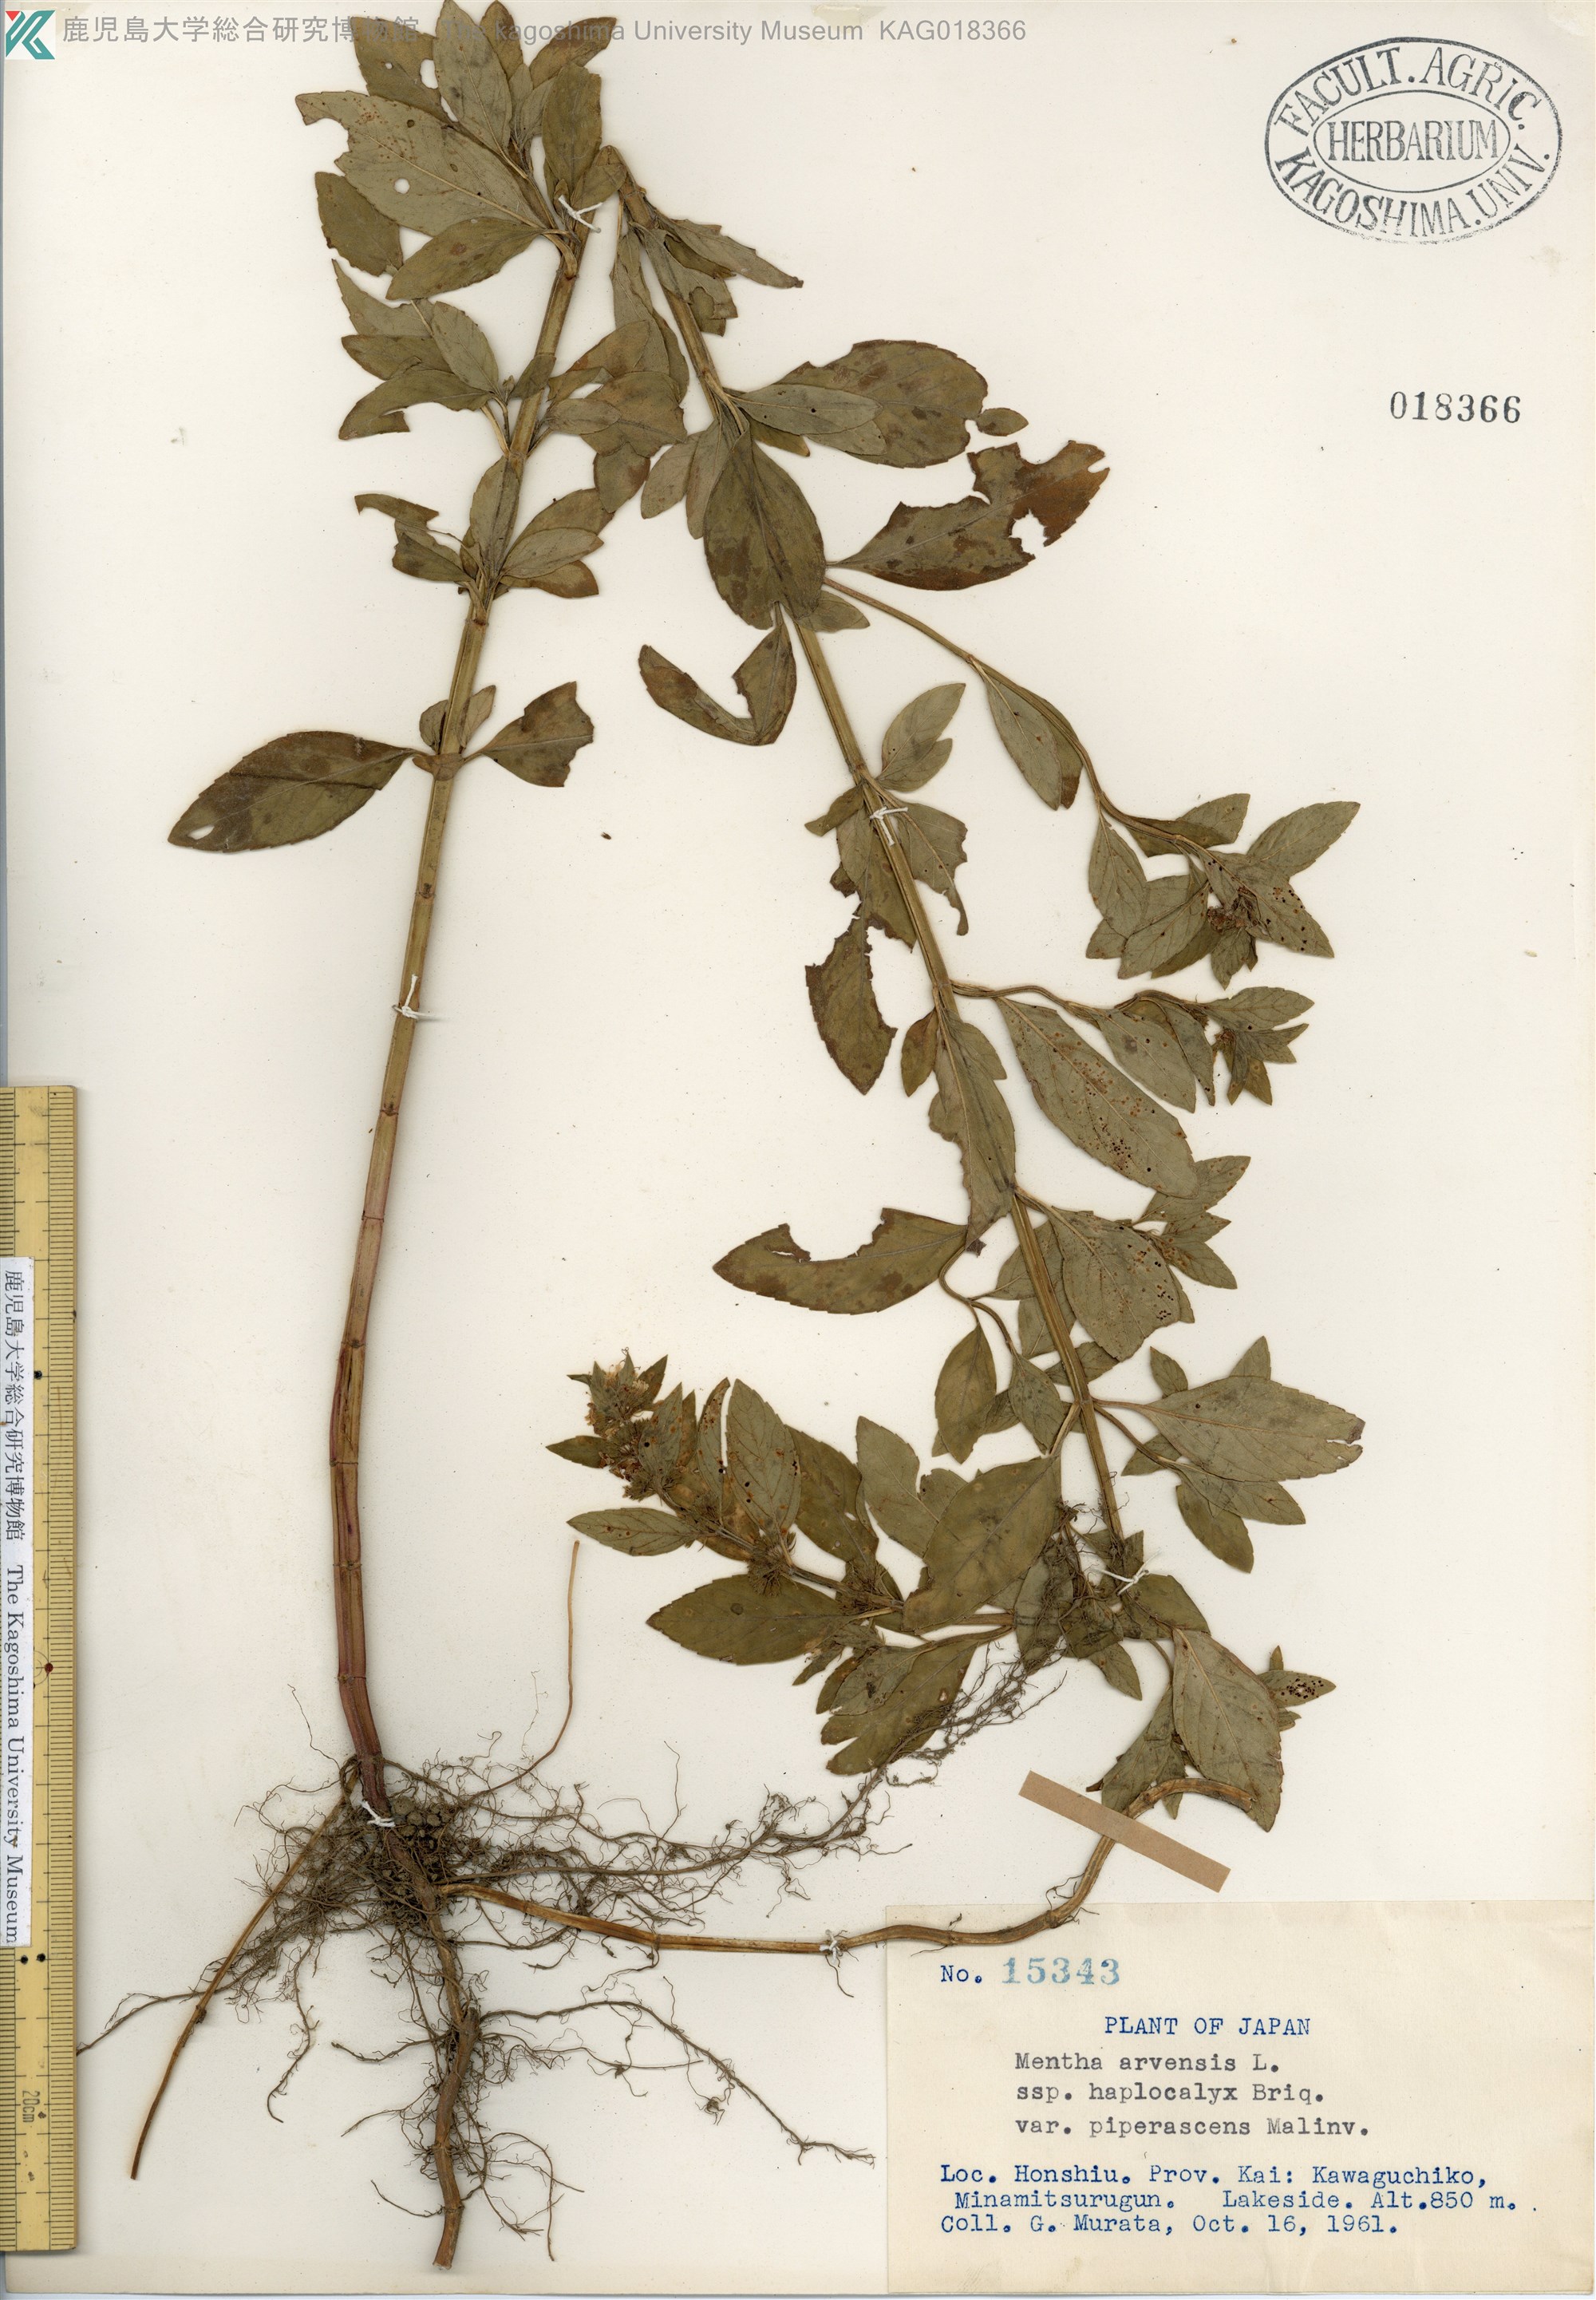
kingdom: Plantae
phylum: Tracheophyta
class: Magnoliopsida
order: Lamiales
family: Lamiaceae
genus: Mentha
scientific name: Mentha canadensis
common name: ハッカ
